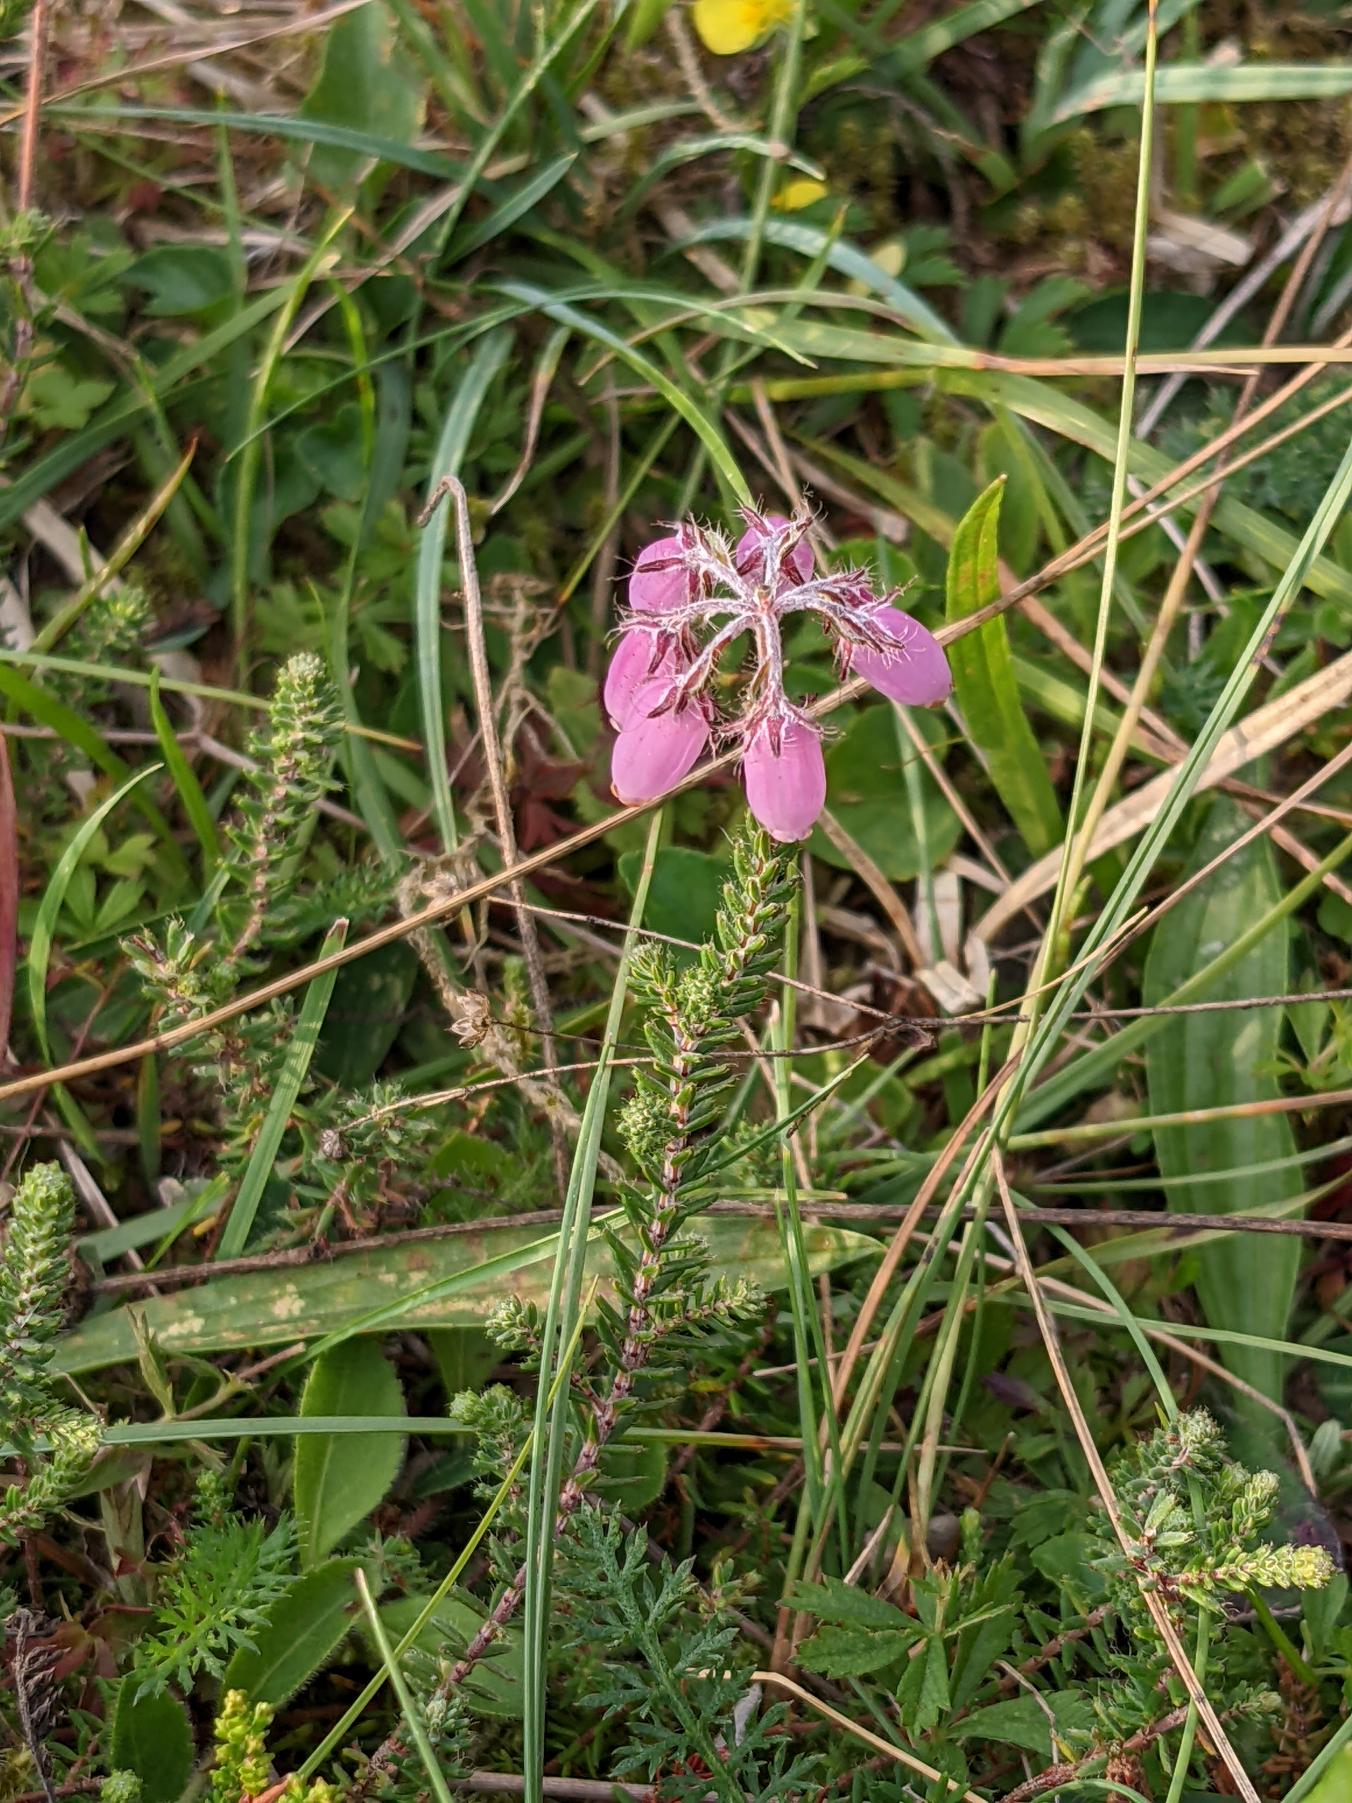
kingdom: Plantae
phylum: Tracheophyta
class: Magnoliopsida
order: Ericales
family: Ericaceae
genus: Erica
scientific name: Erica tetralix
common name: Klokkelyng
